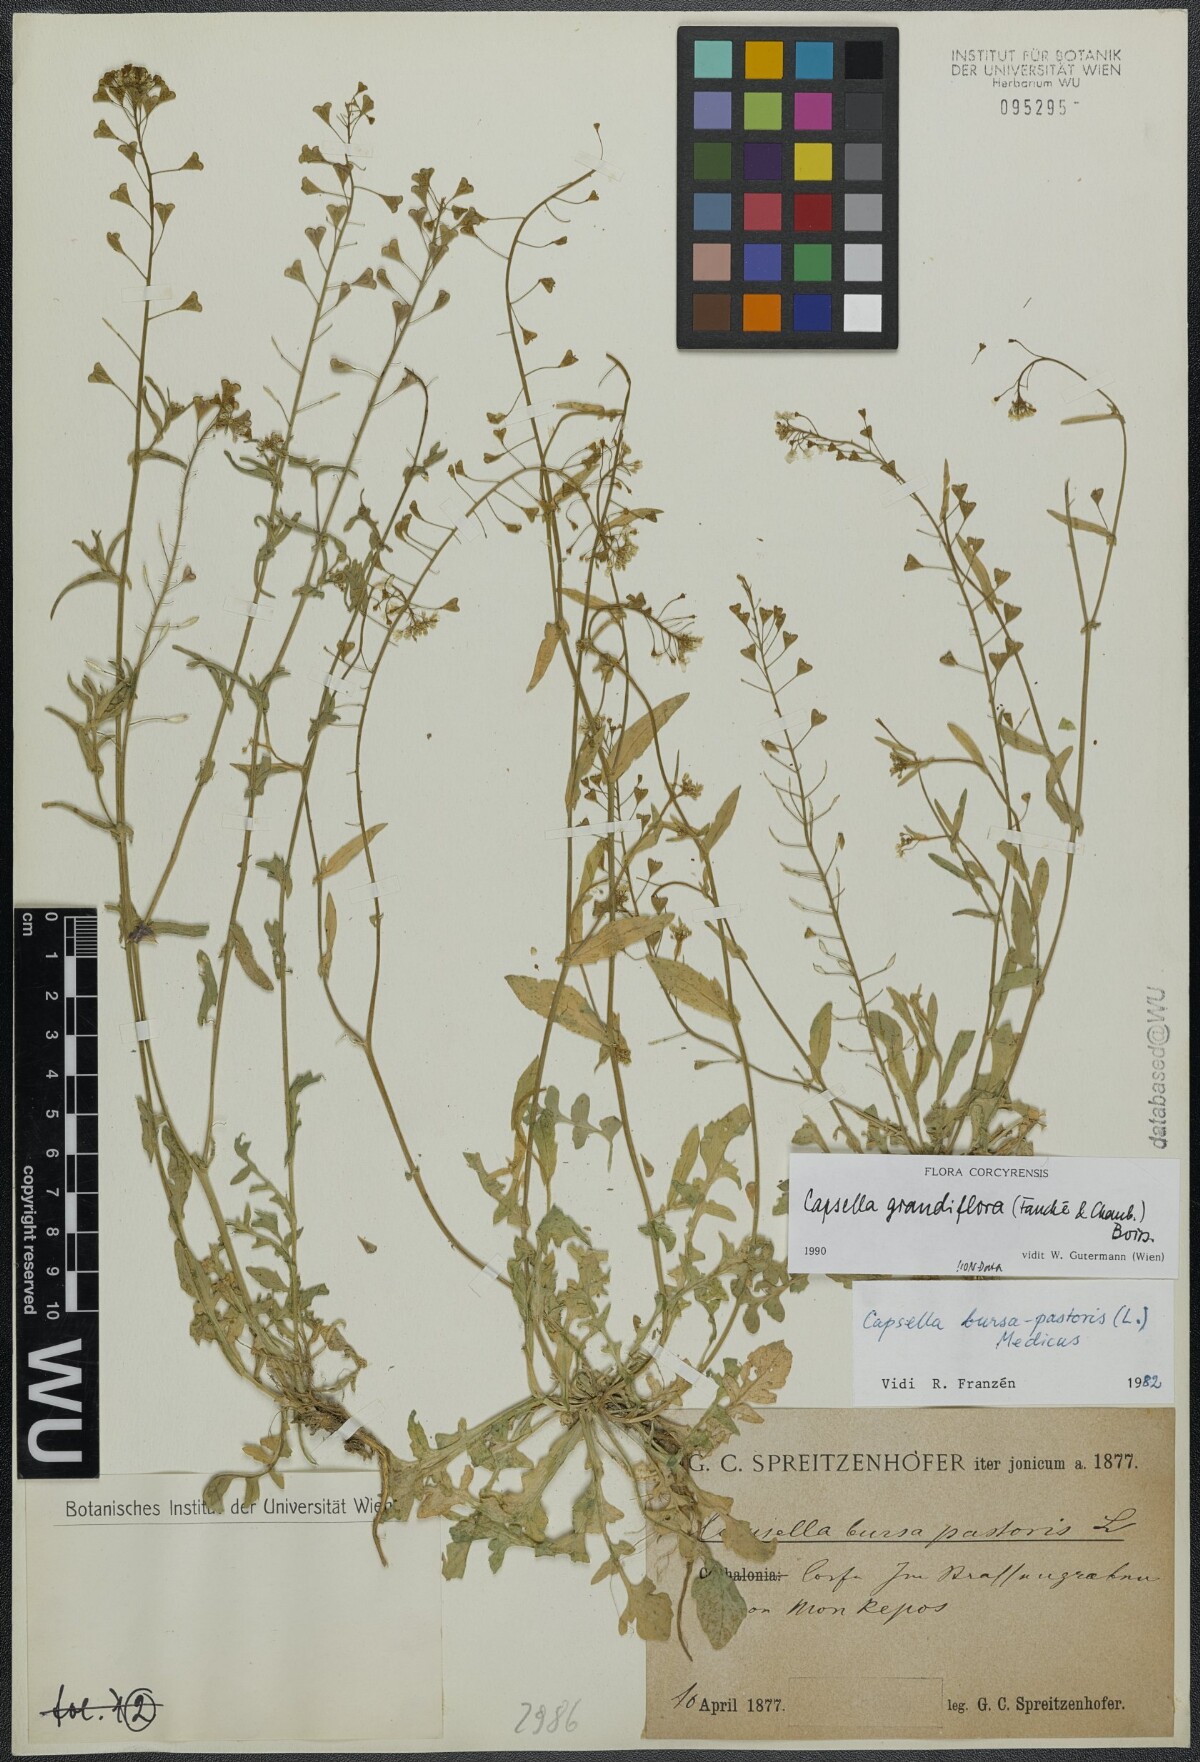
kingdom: Plantae
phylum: Tracheophyta
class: Magnoliopsida
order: Brassicales
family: Brassicaceae
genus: Capsella
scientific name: Capsella grandiflora
